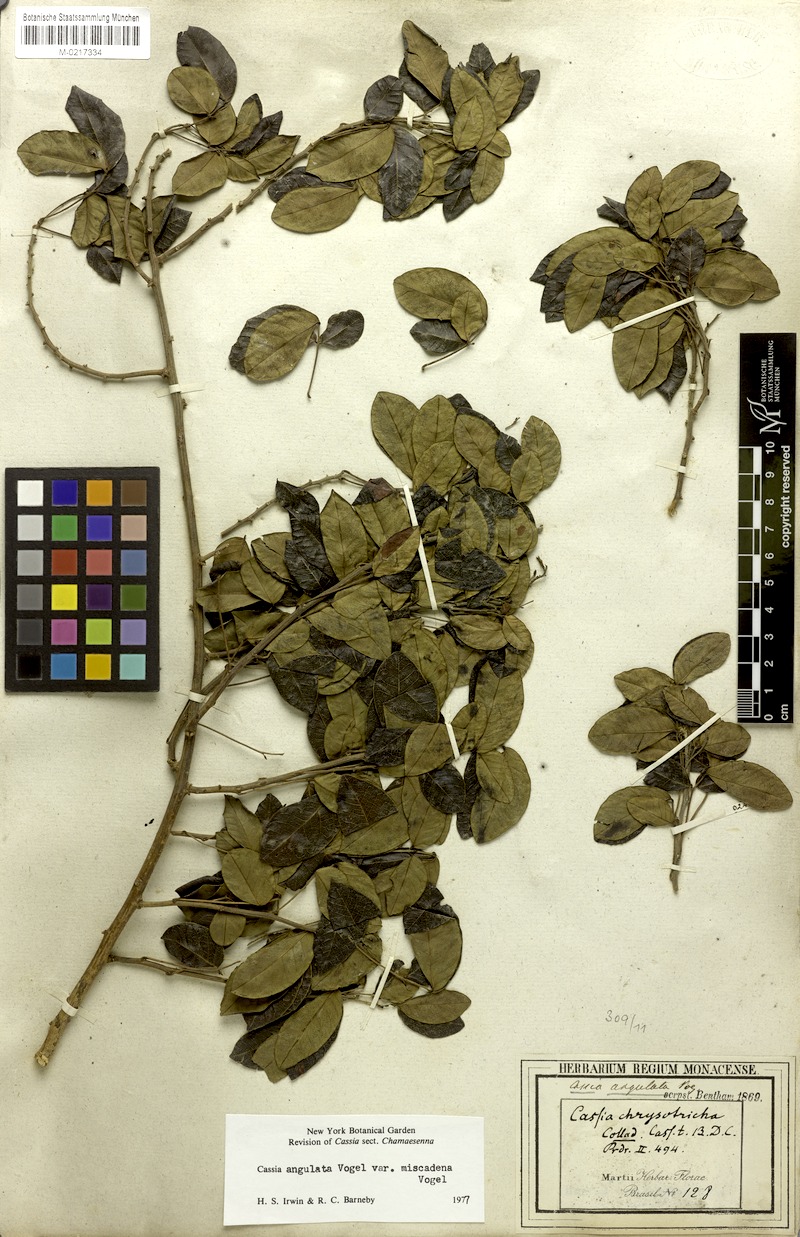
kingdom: Plantae
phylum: Tracheophyta
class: Magnoliopsida
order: Fabales
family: Fabaceae
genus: Senna
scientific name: Senna angulata
